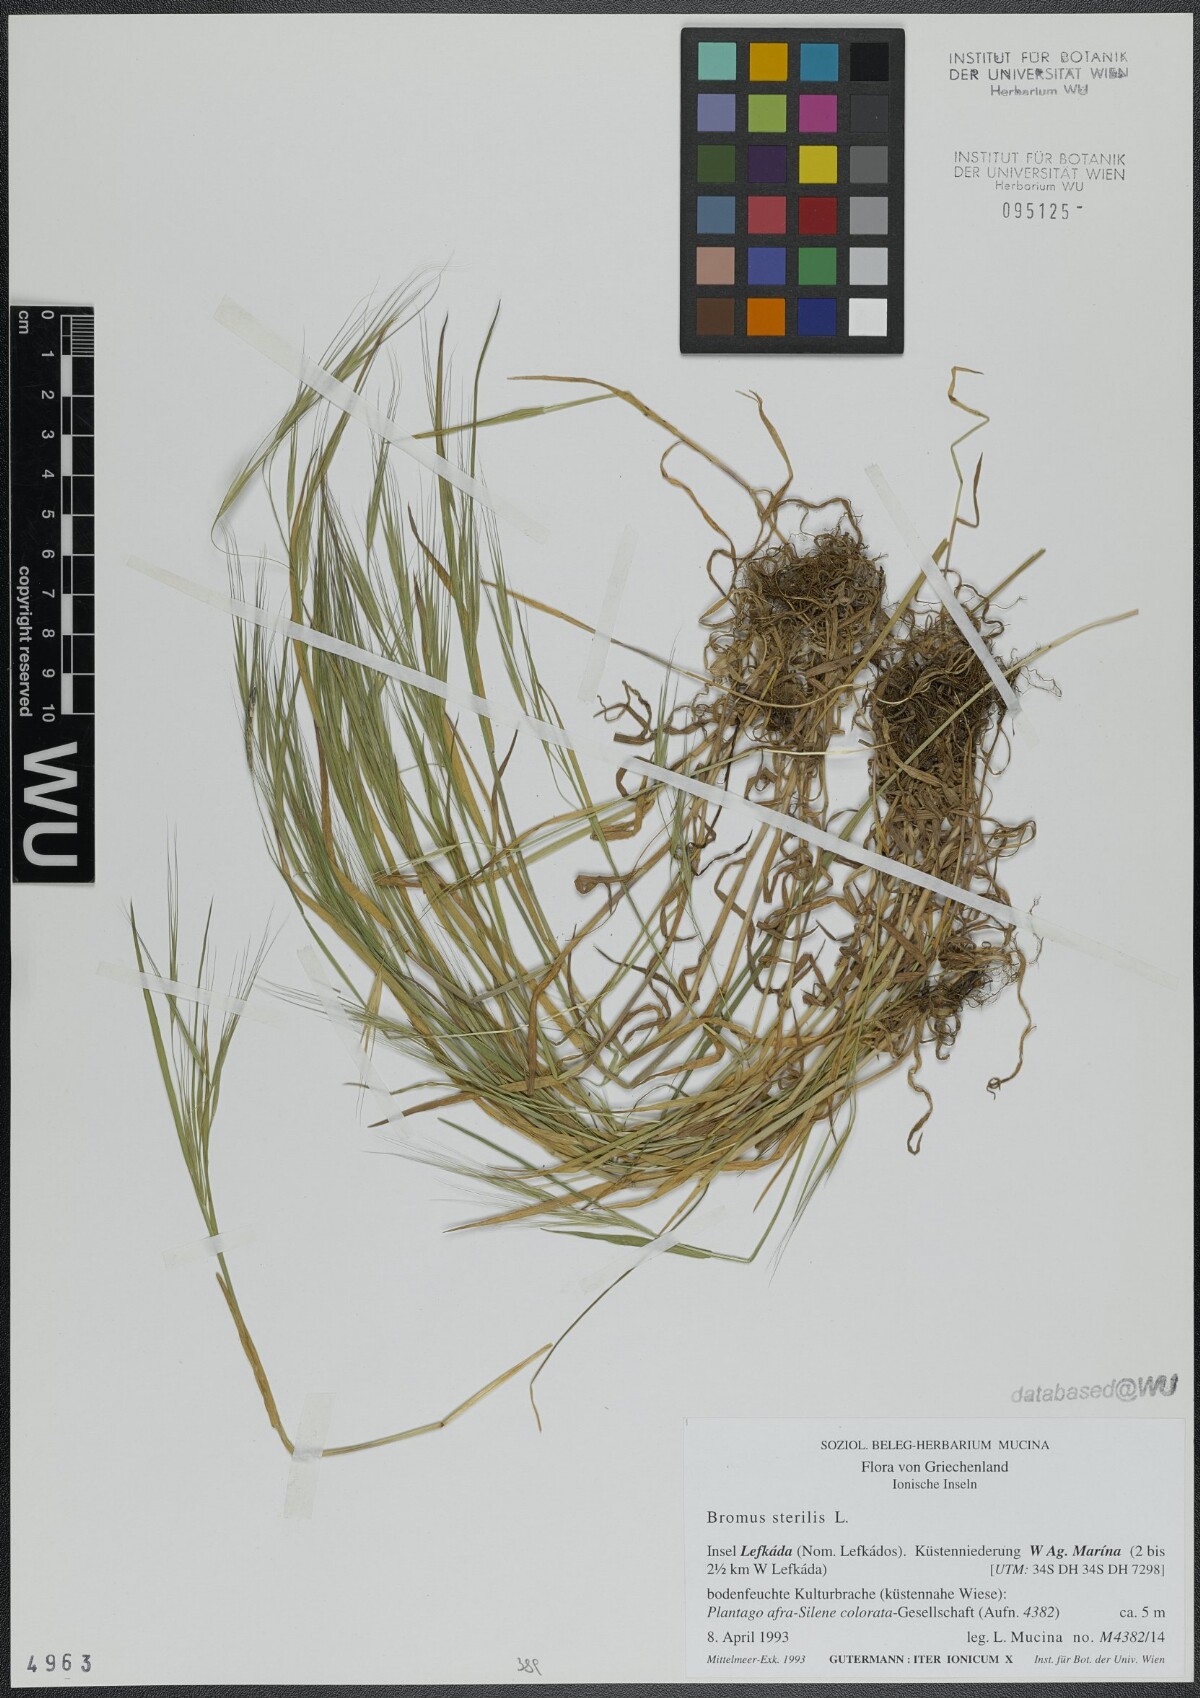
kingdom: Plantae
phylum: Tracheophyta
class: Liliopsida
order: Poales
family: Poaceae
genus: Bromus
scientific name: Bromus sterilis
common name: Poverty brome
